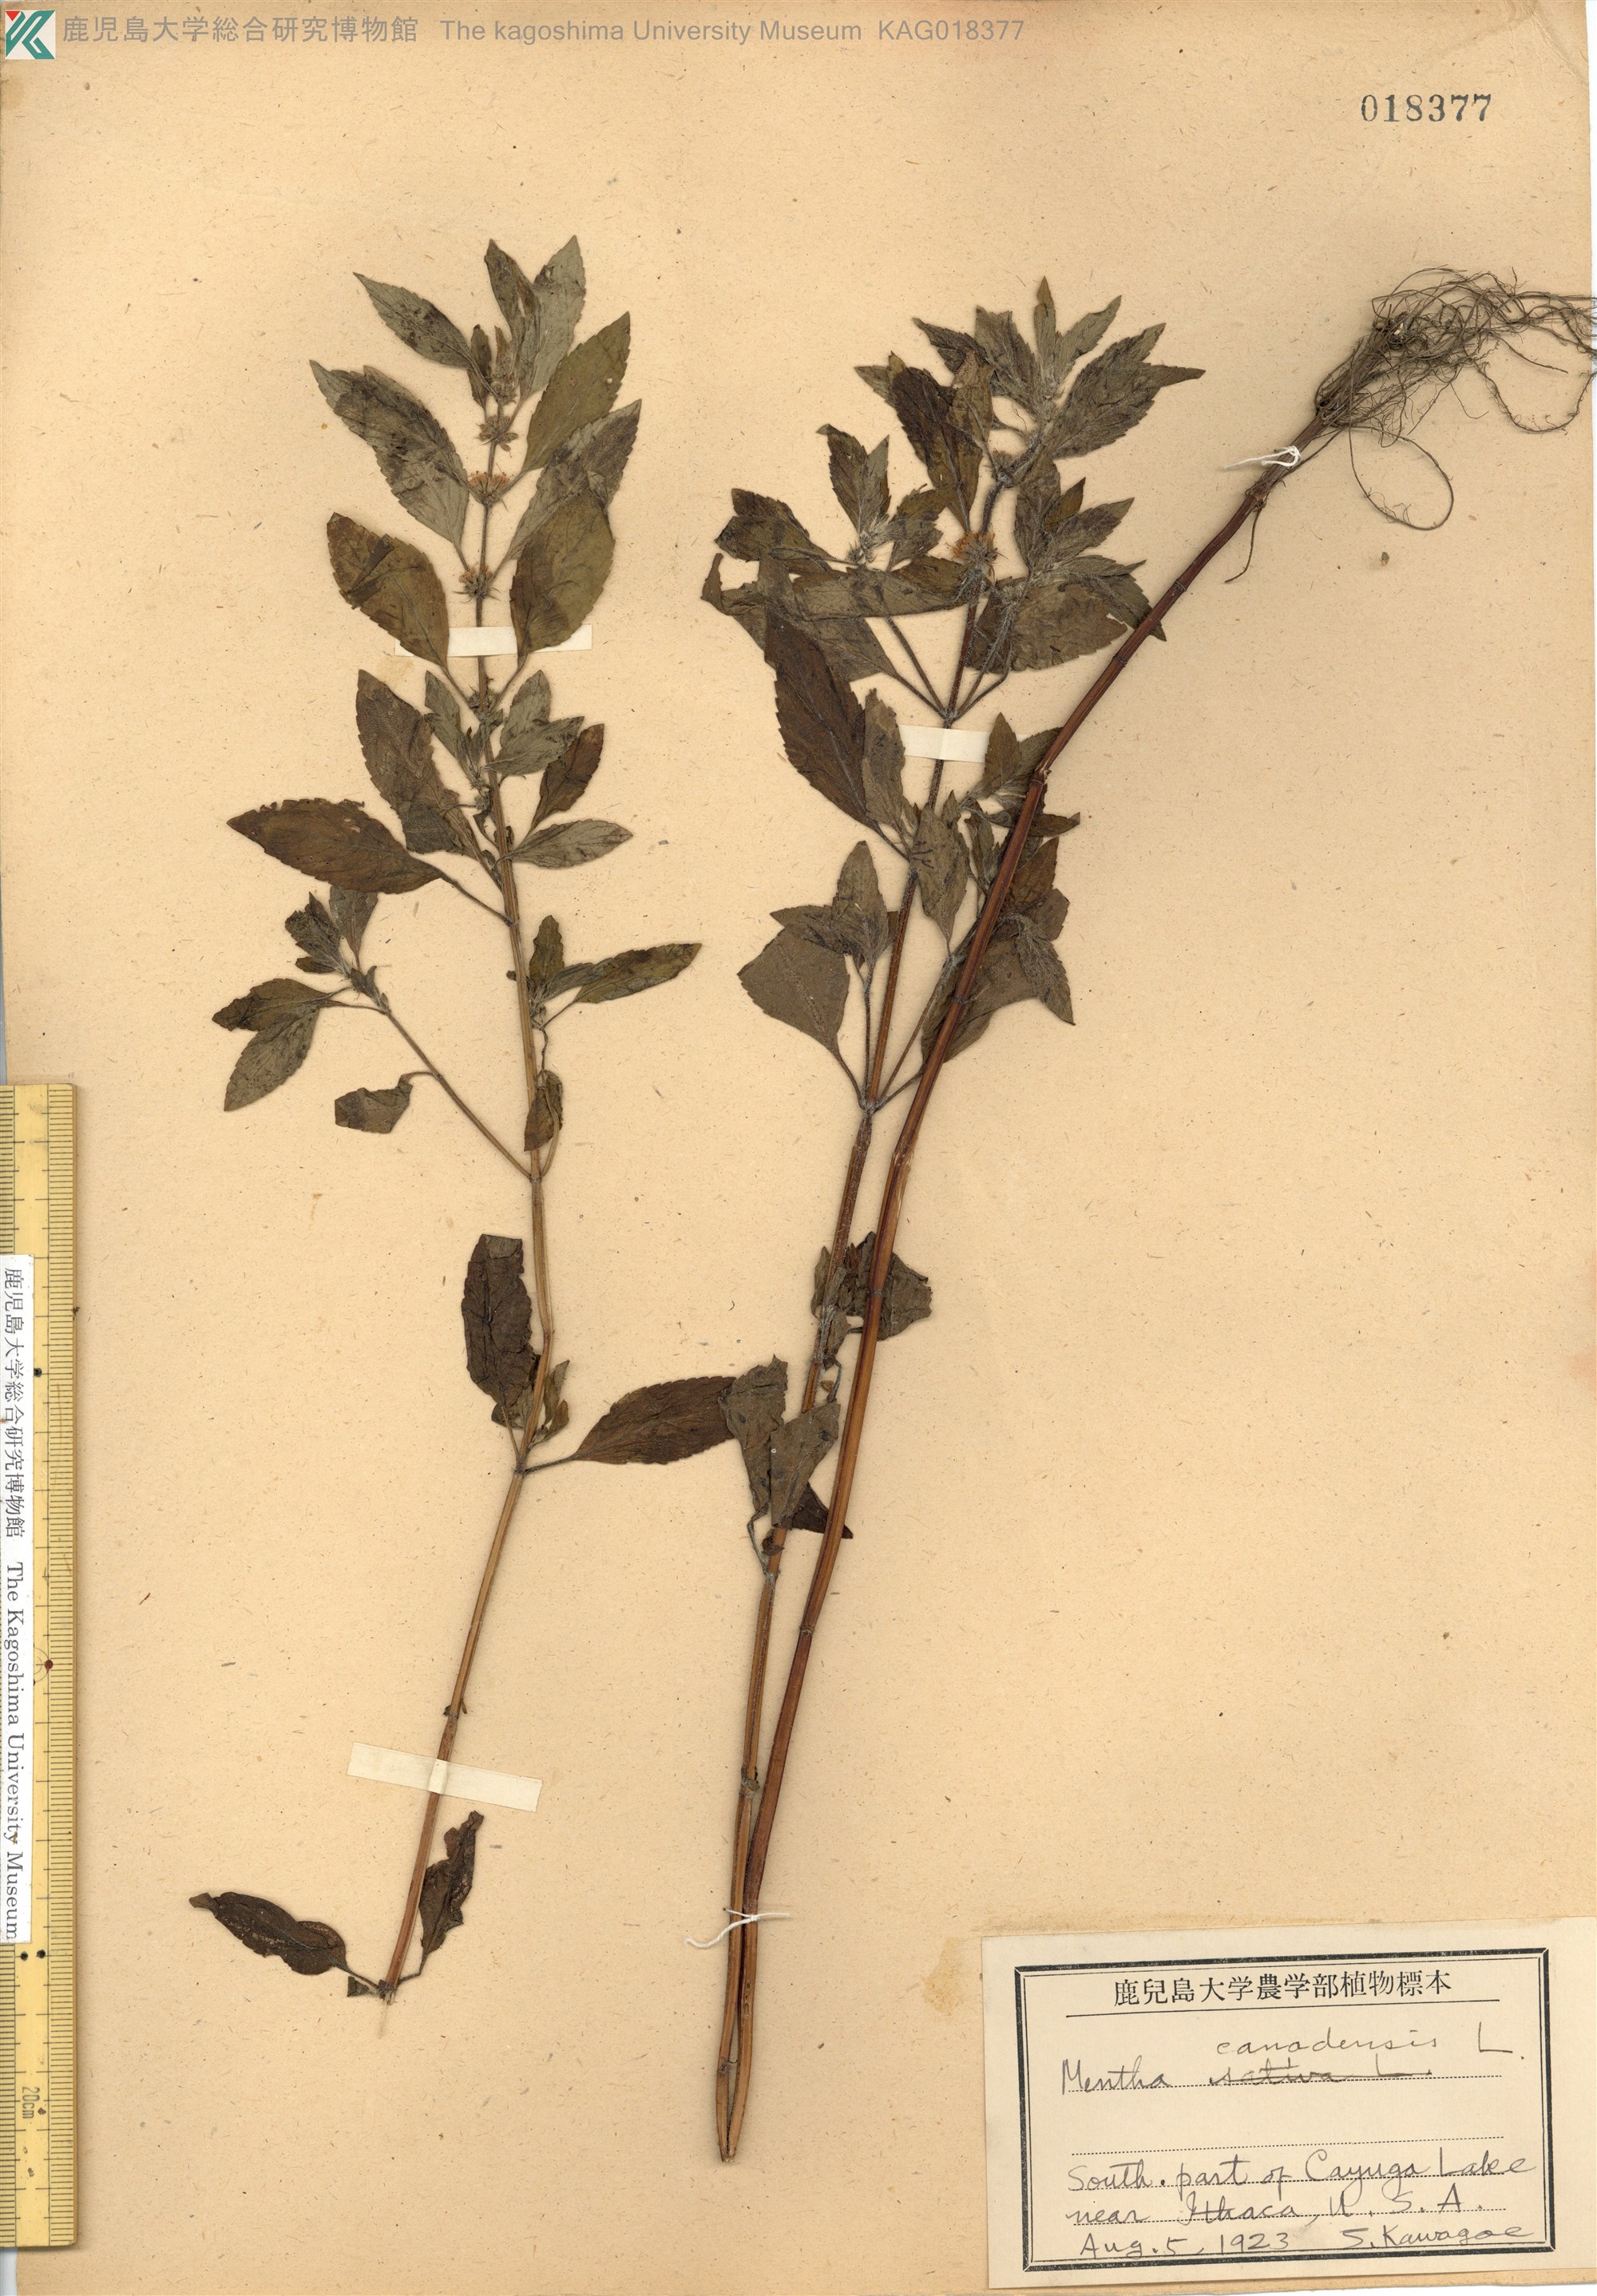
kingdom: Plantae
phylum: Tracheophyta
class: Magnoliopsida
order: Lamiales
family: Lamiaceae
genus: Mentha
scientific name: Mentha canadensis
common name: American corn mint
